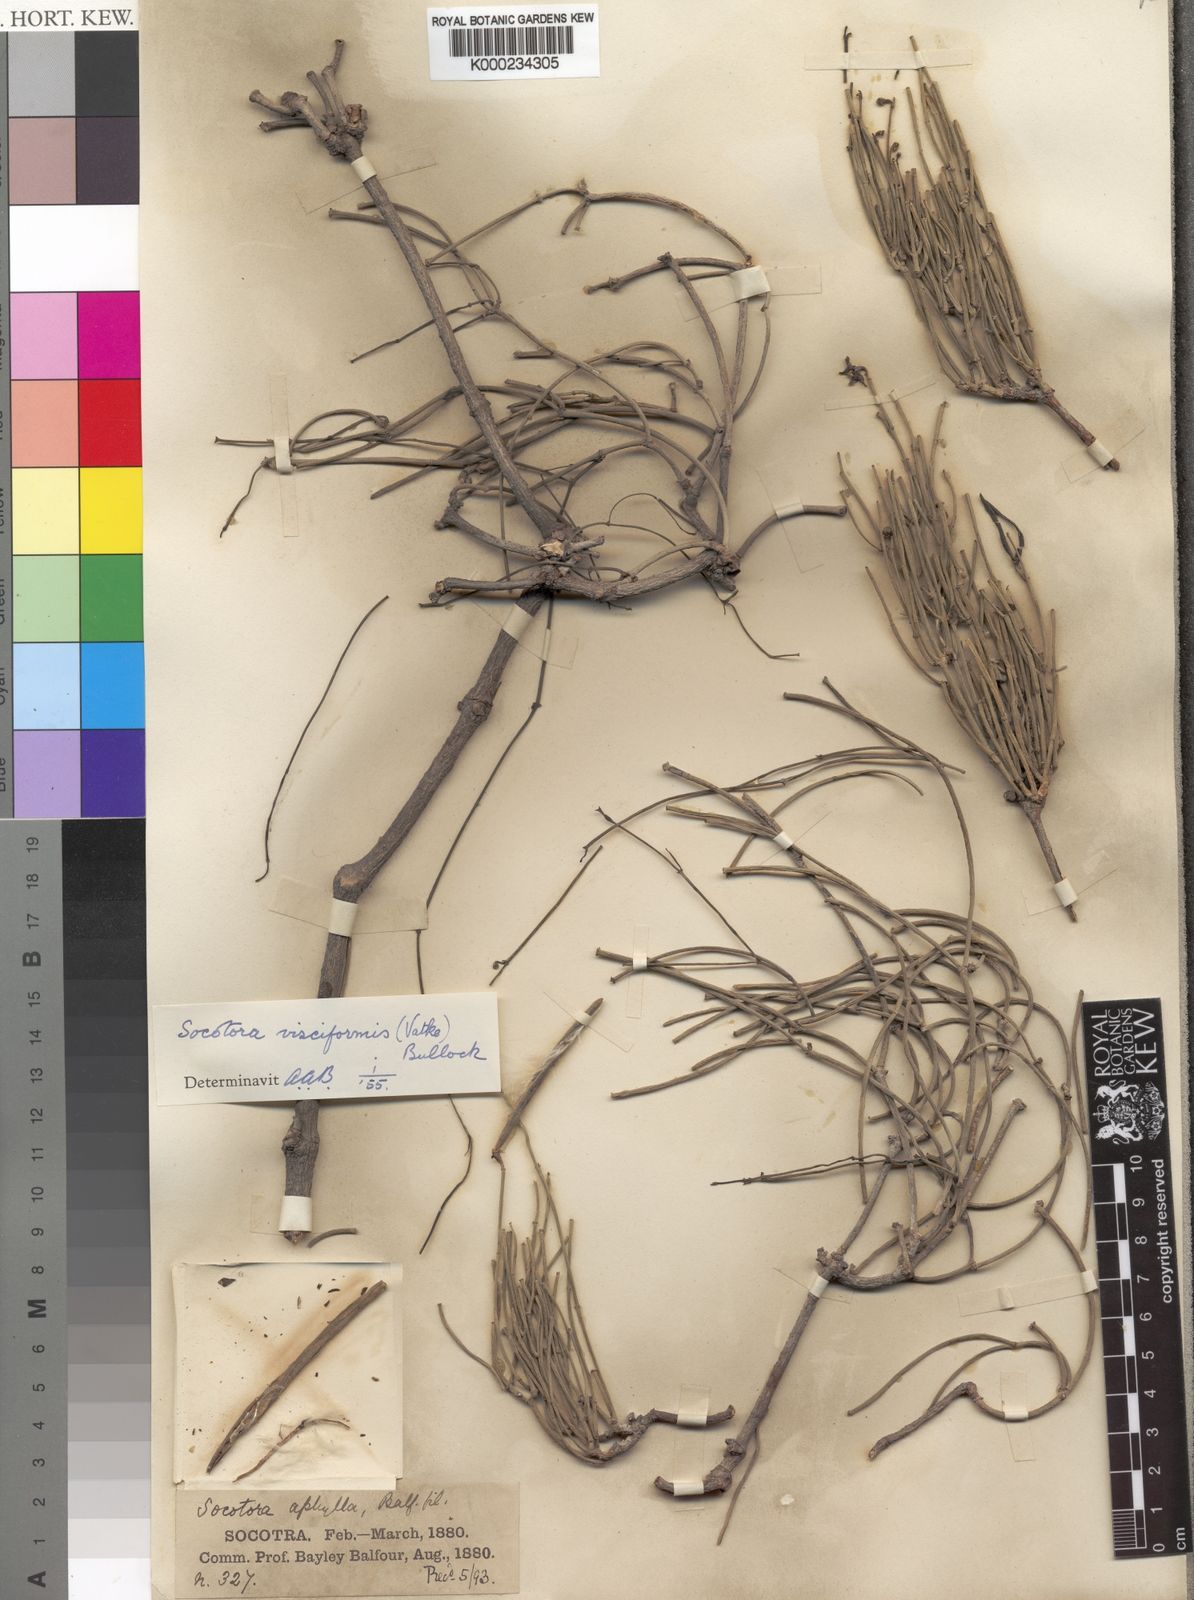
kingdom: Plantae
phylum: Tracheophyta
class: Magnoliopsida
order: Gentianales
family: Apocynaceae
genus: Periploca
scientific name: Periploca visciformis
